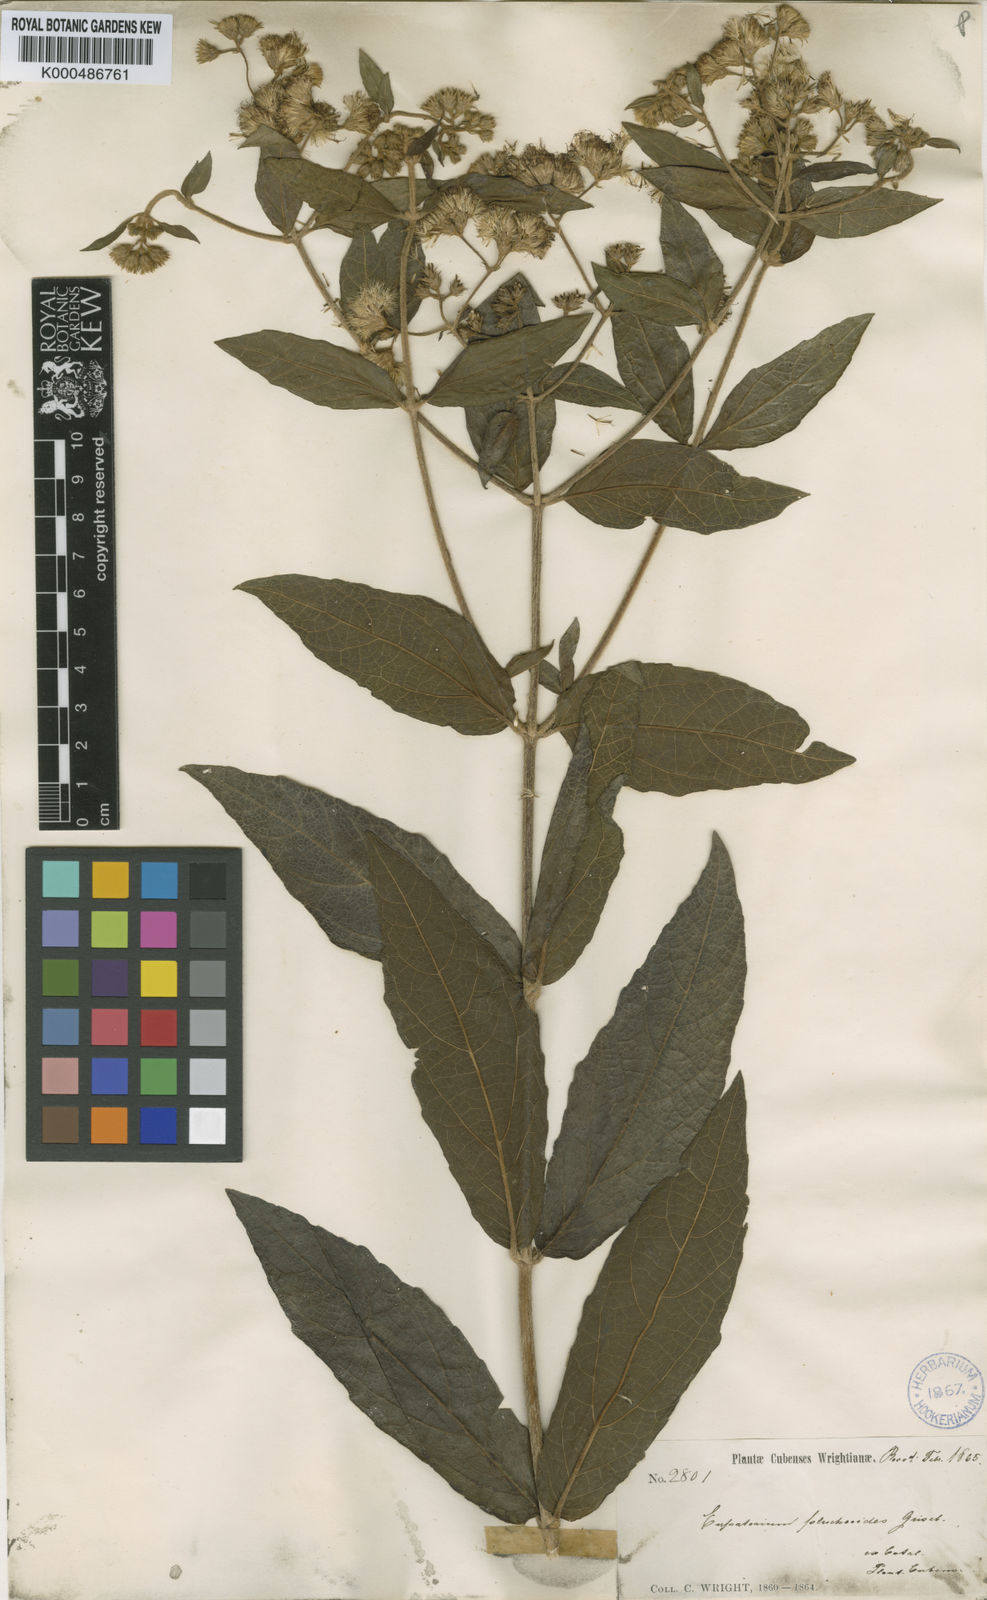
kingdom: Plantae
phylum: Tracheophyta
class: Magnoliopsida
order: Asterales
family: Asteraceae
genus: Grisebachianthus
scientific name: Grisebachianthus plucheoides
